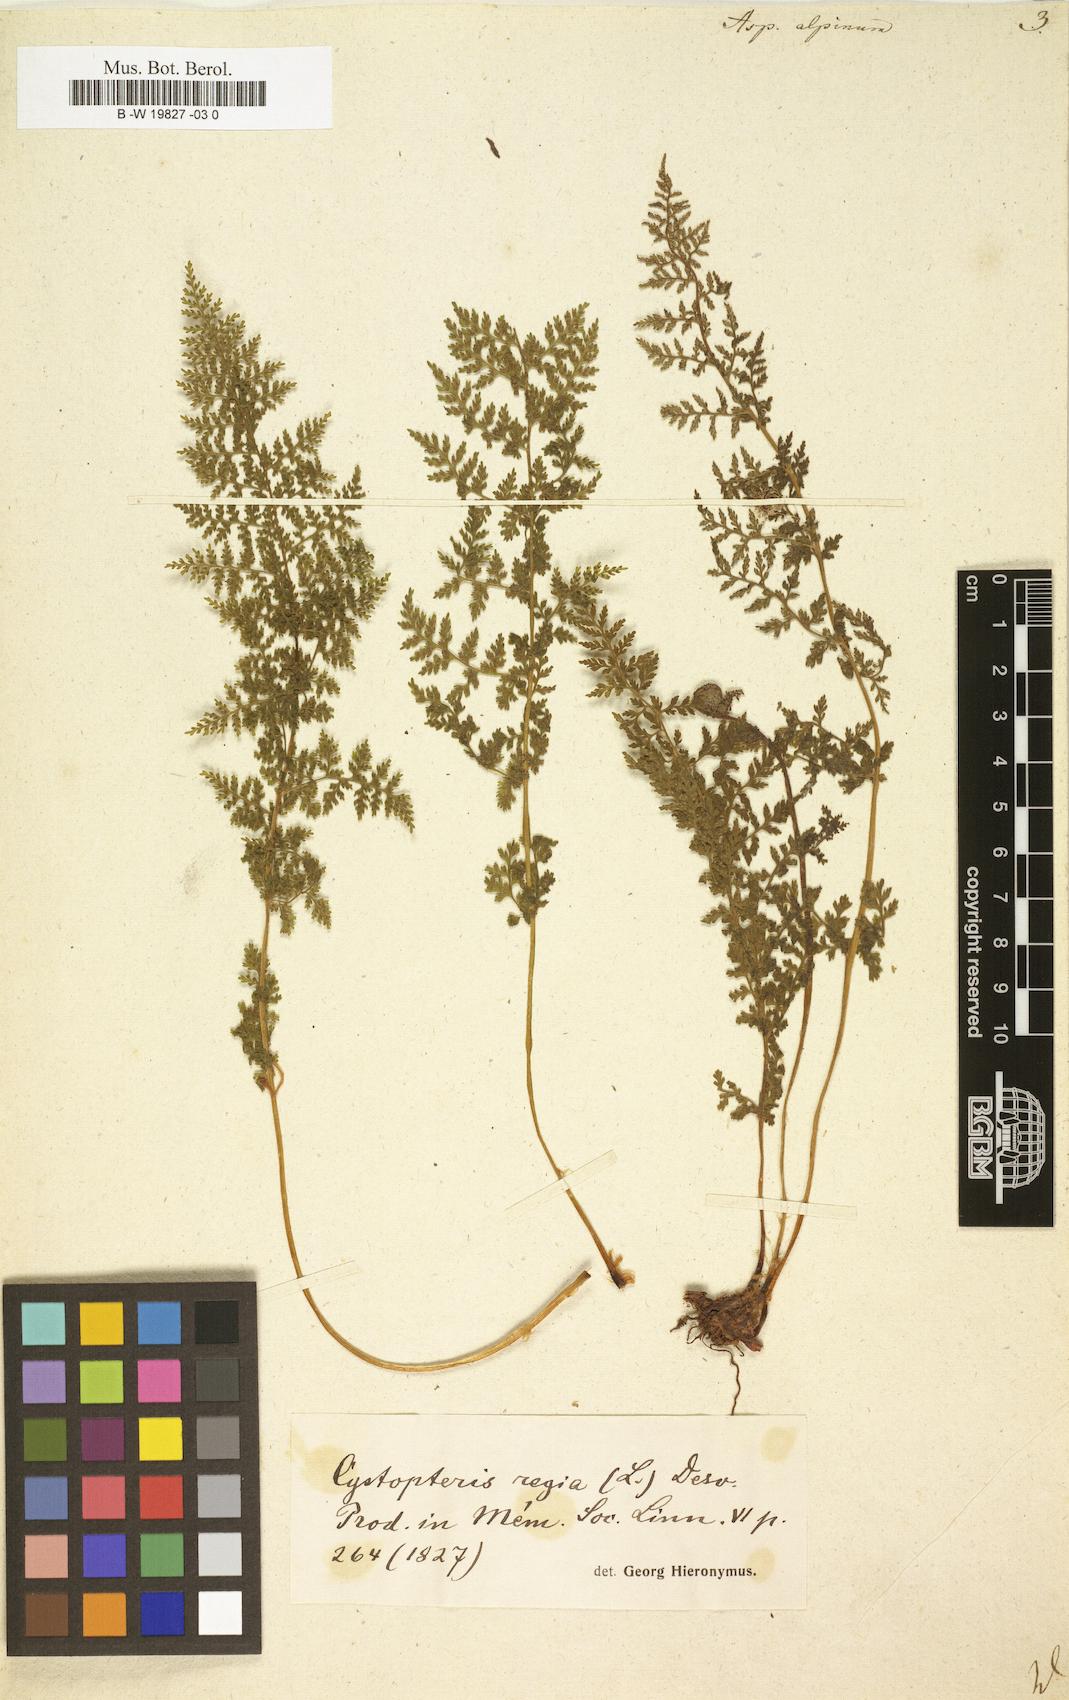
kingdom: Plantae
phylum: Tracheophyta
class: Polypodiopsida
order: Polypodiales
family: Cystopteridaceae
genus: Cystopteris
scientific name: Cystopteris alpina
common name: Alpine bladder-fern
